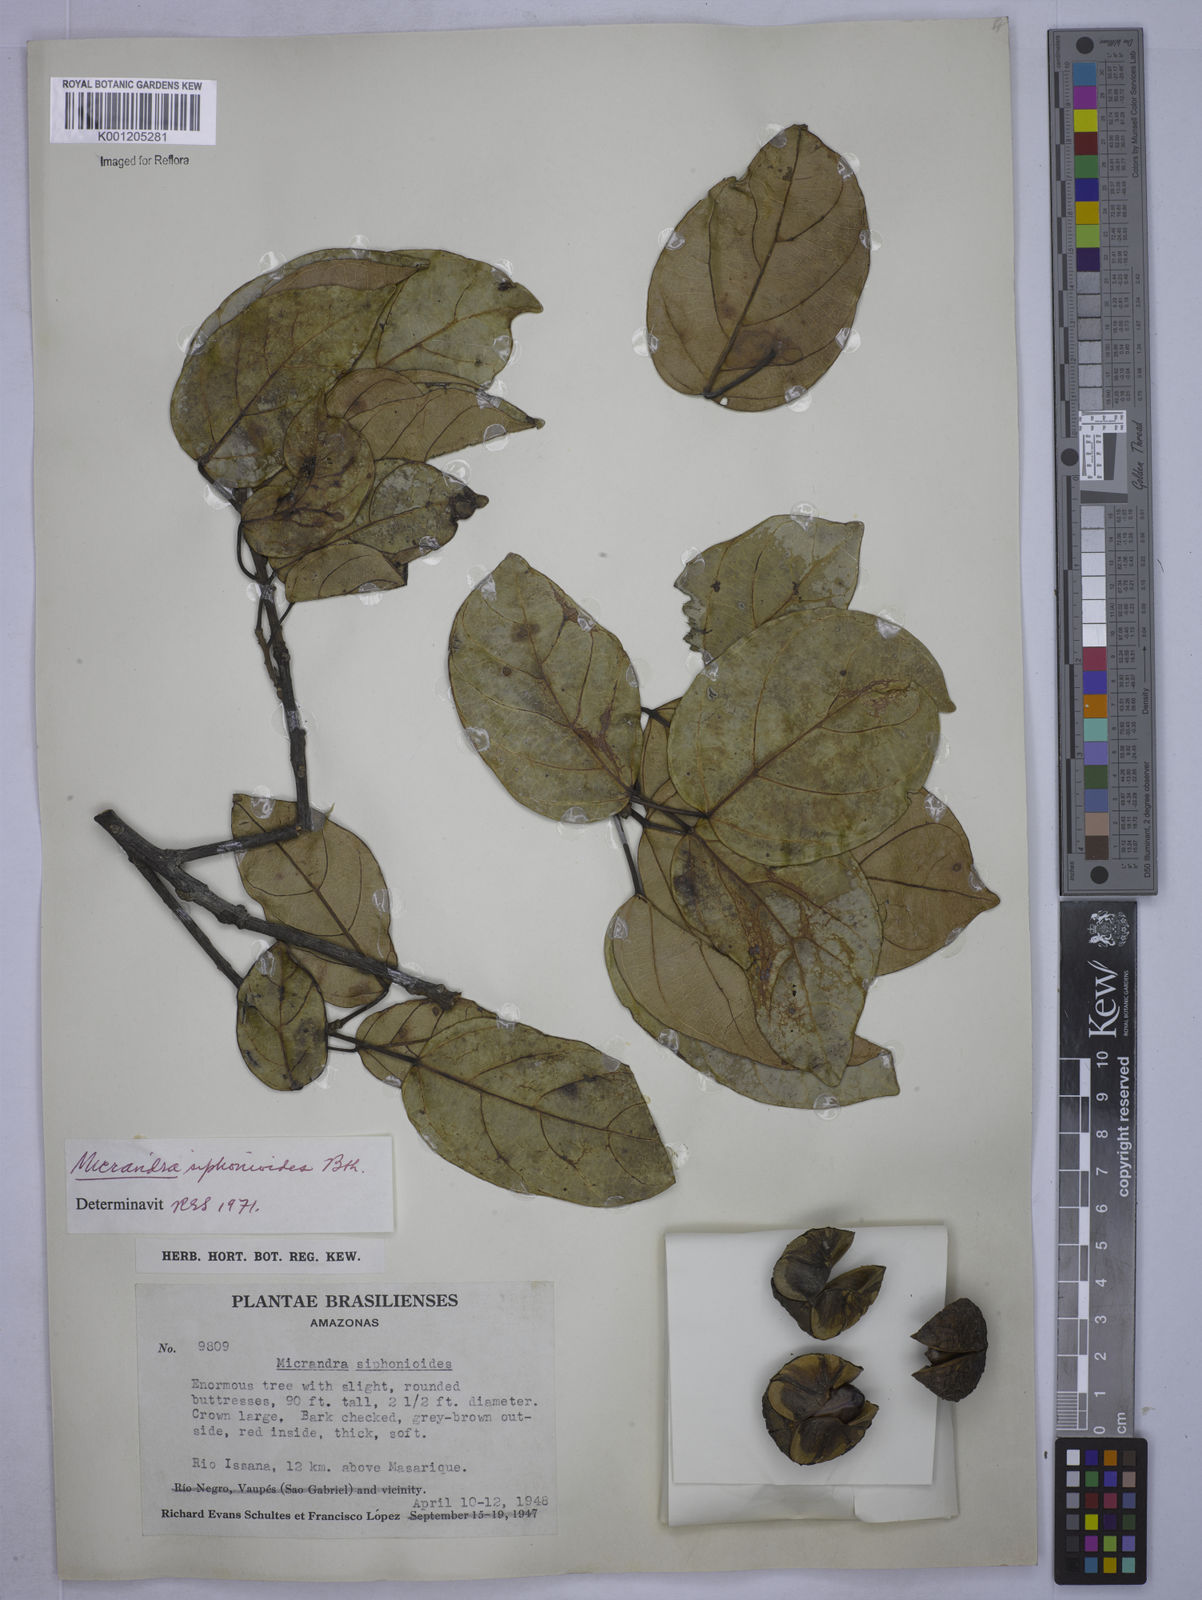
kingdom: Plantae
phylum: Tracheophyta
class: Magnoliopsida
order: Malpighiales
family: Euphorbiaceae
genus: Micrandra
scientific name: Micrandra siphonioides
